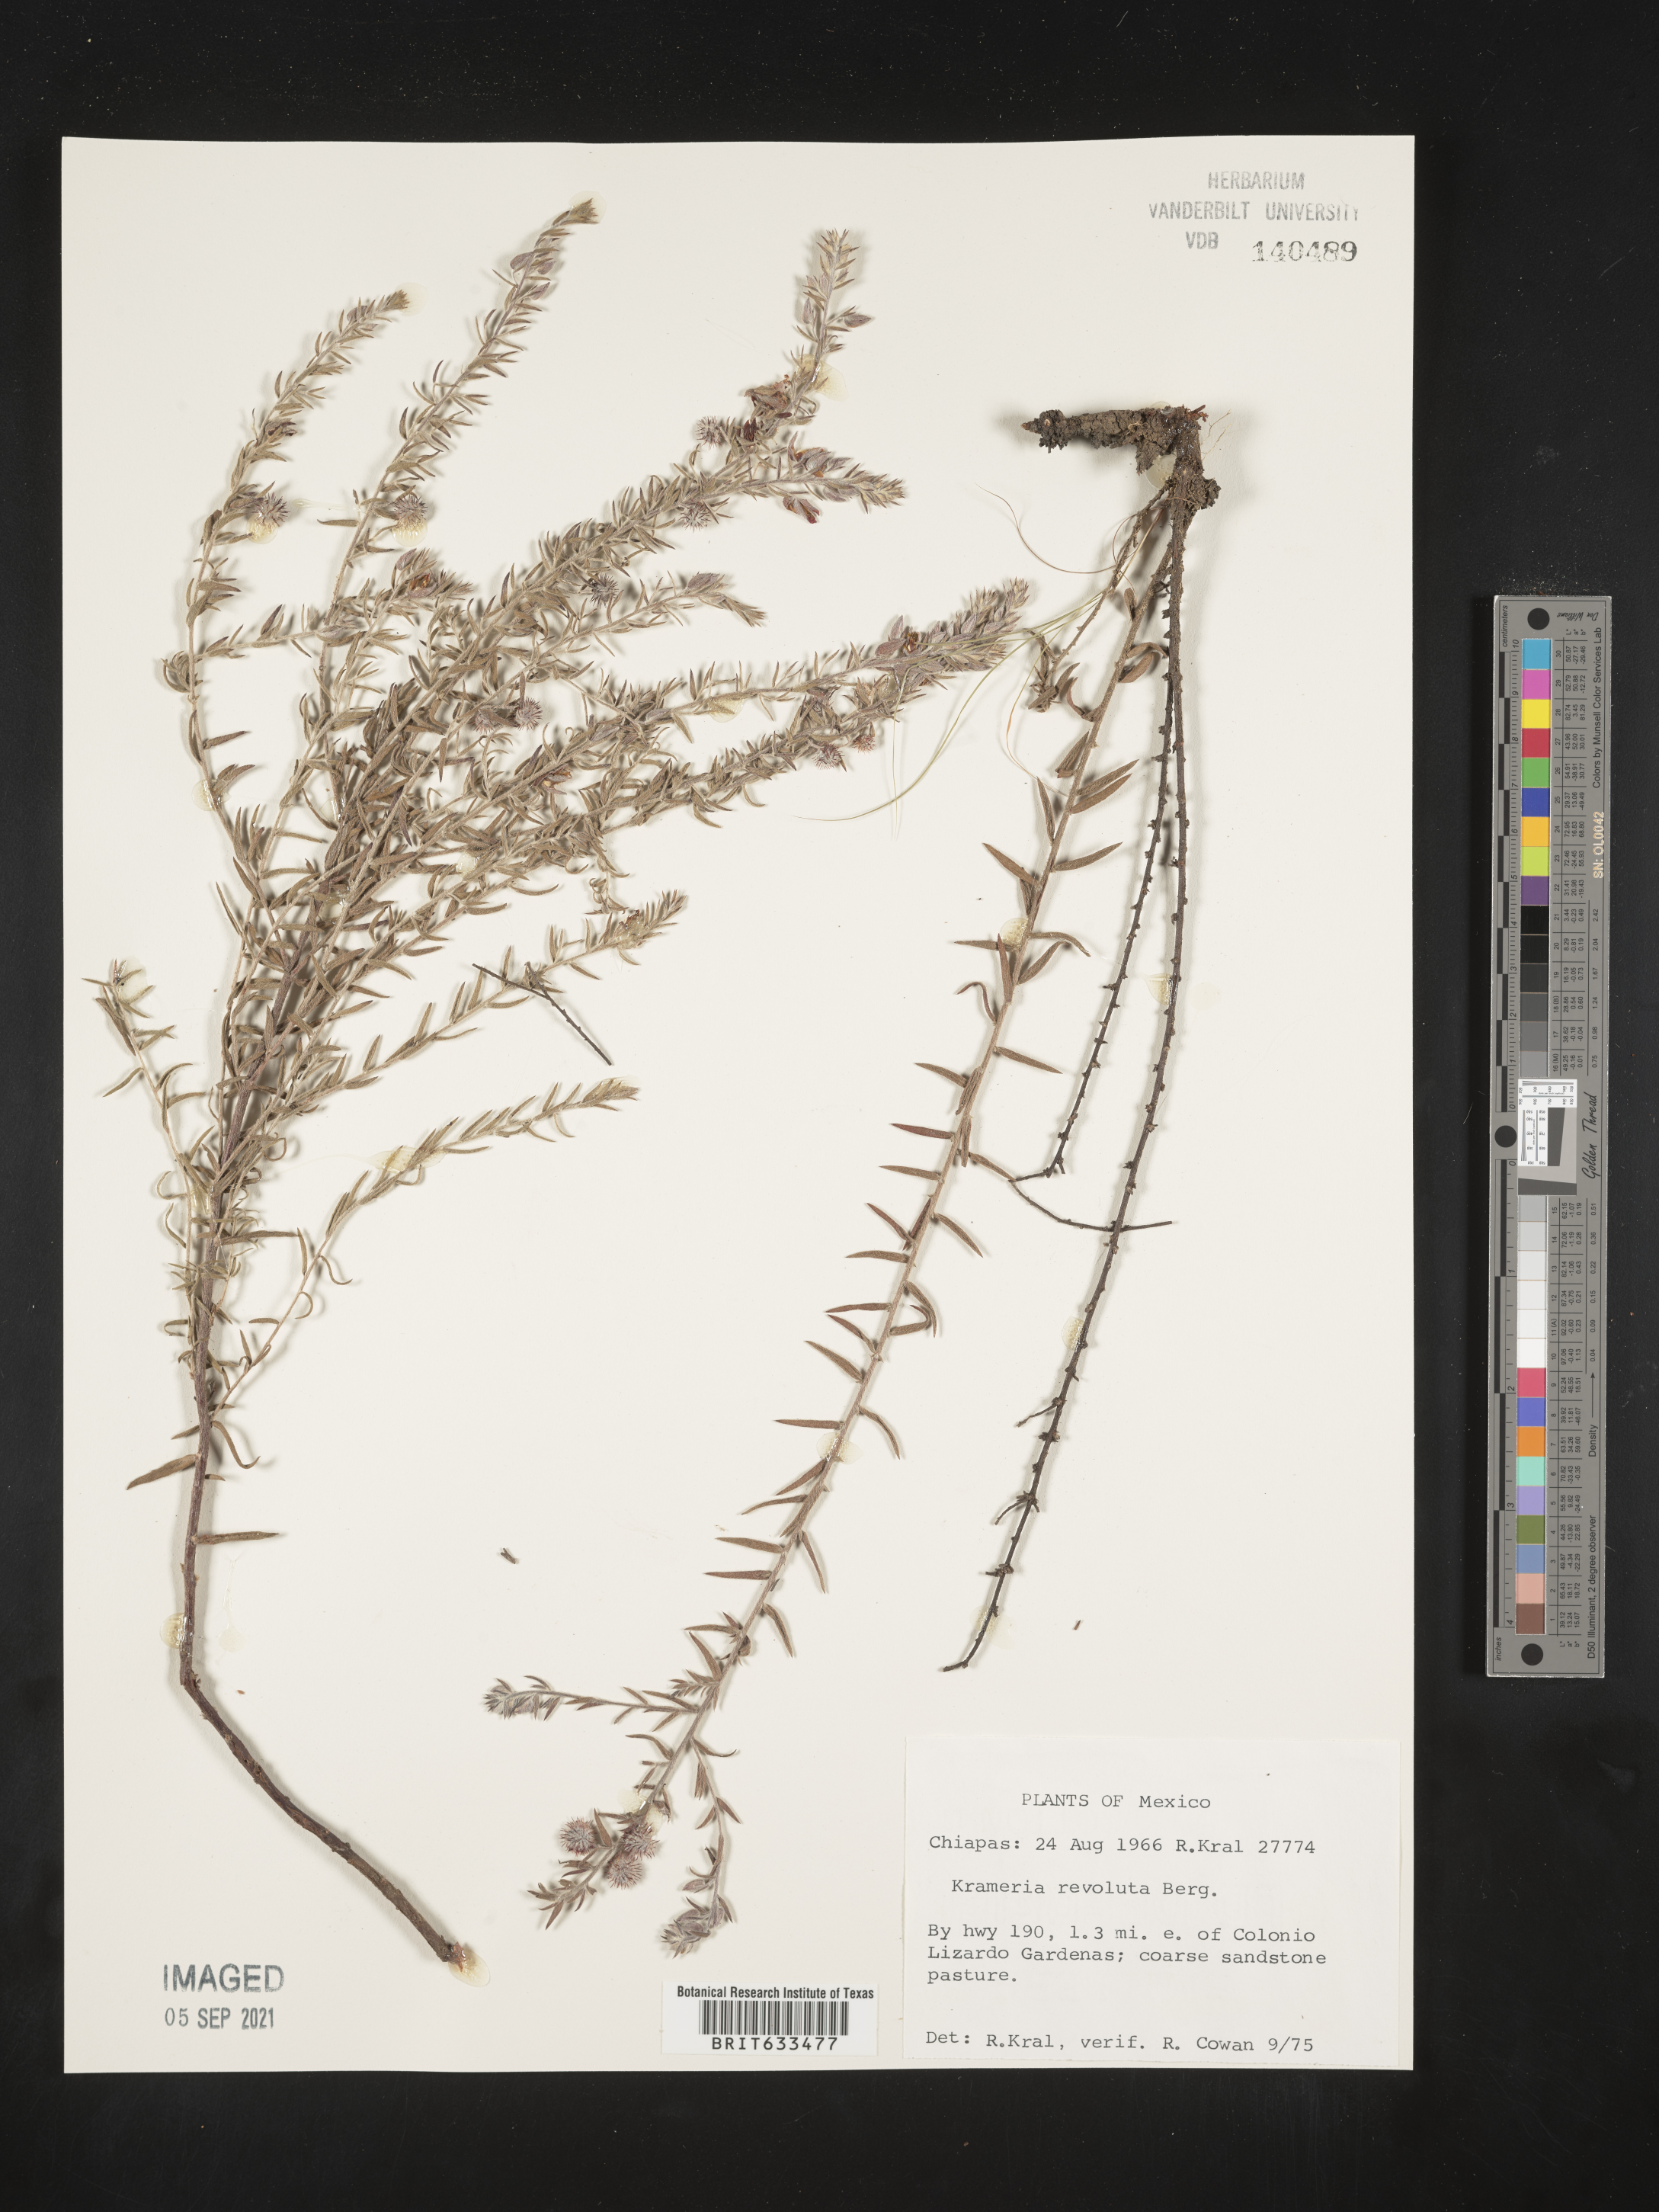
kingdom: Plantae
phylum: Tracheophyta
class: Magnoliopsida
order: Zygophyllales
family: Krameriaceae
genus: Krameria
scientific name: Krameria
